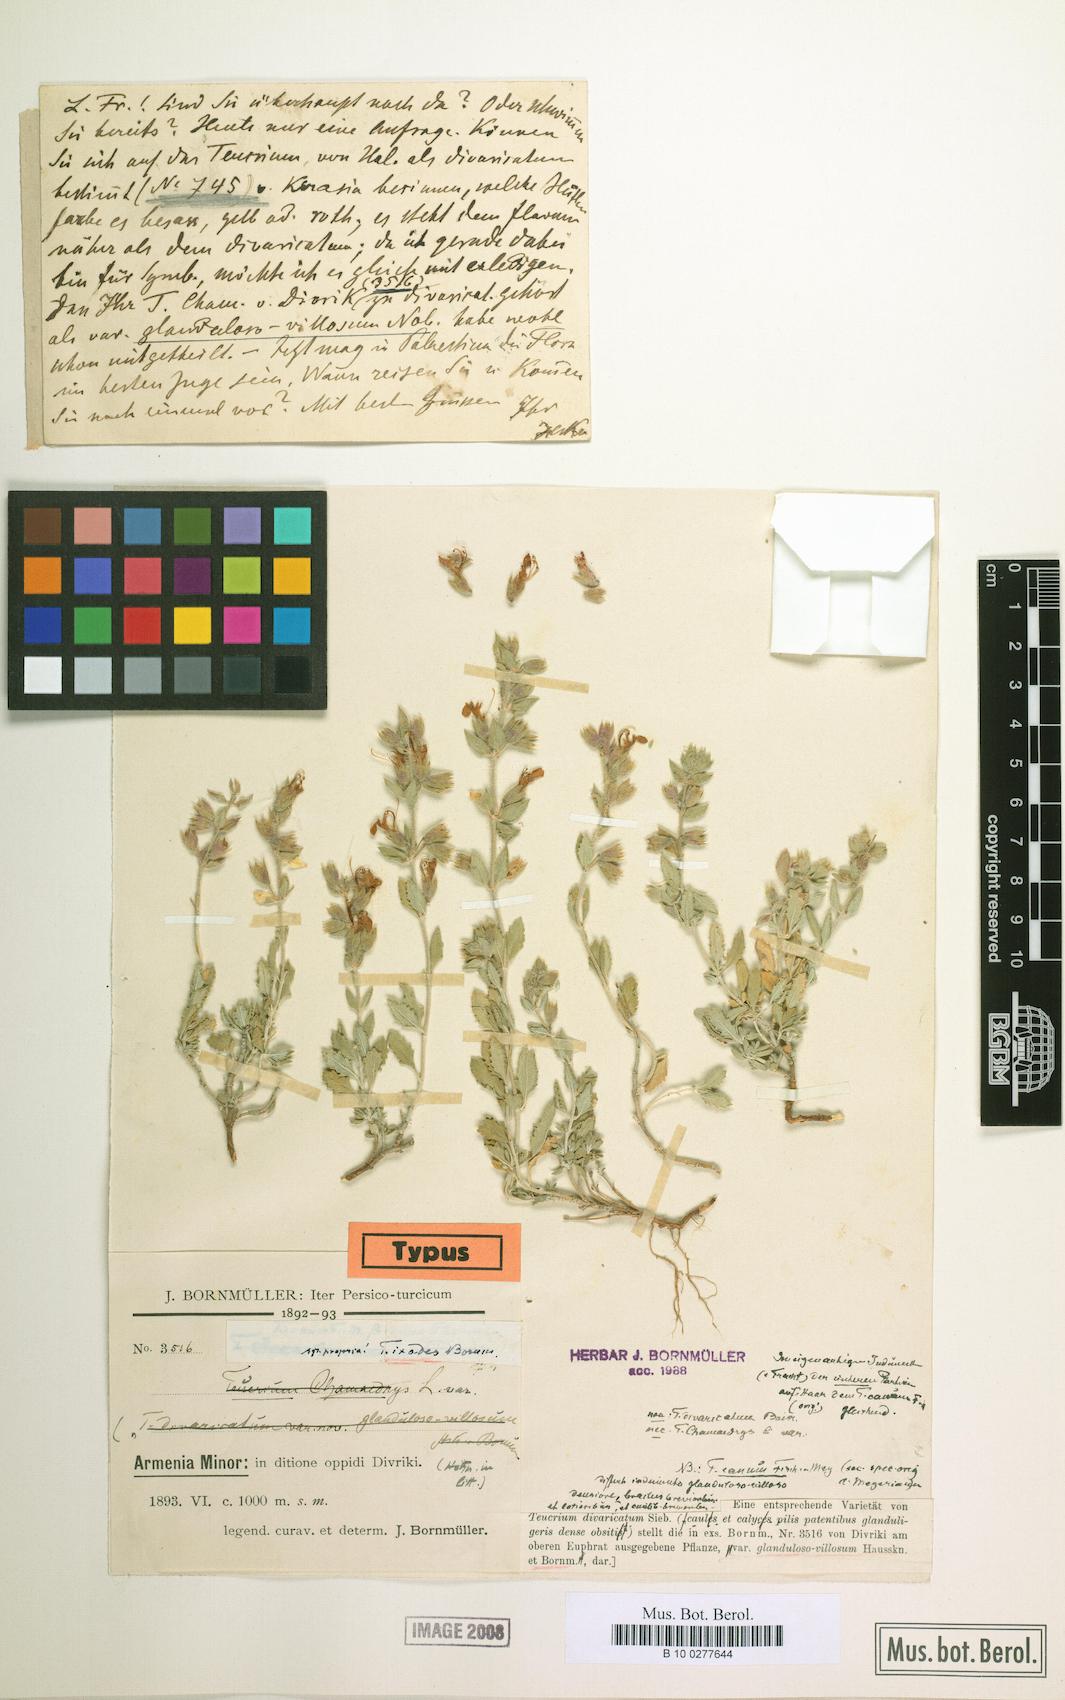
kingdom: Plantae
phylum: Tracheophyta
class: Magnoliopsida
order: Lamiales
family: Lamiaceae
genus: Teucrium
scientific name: Teucrium ixodes
